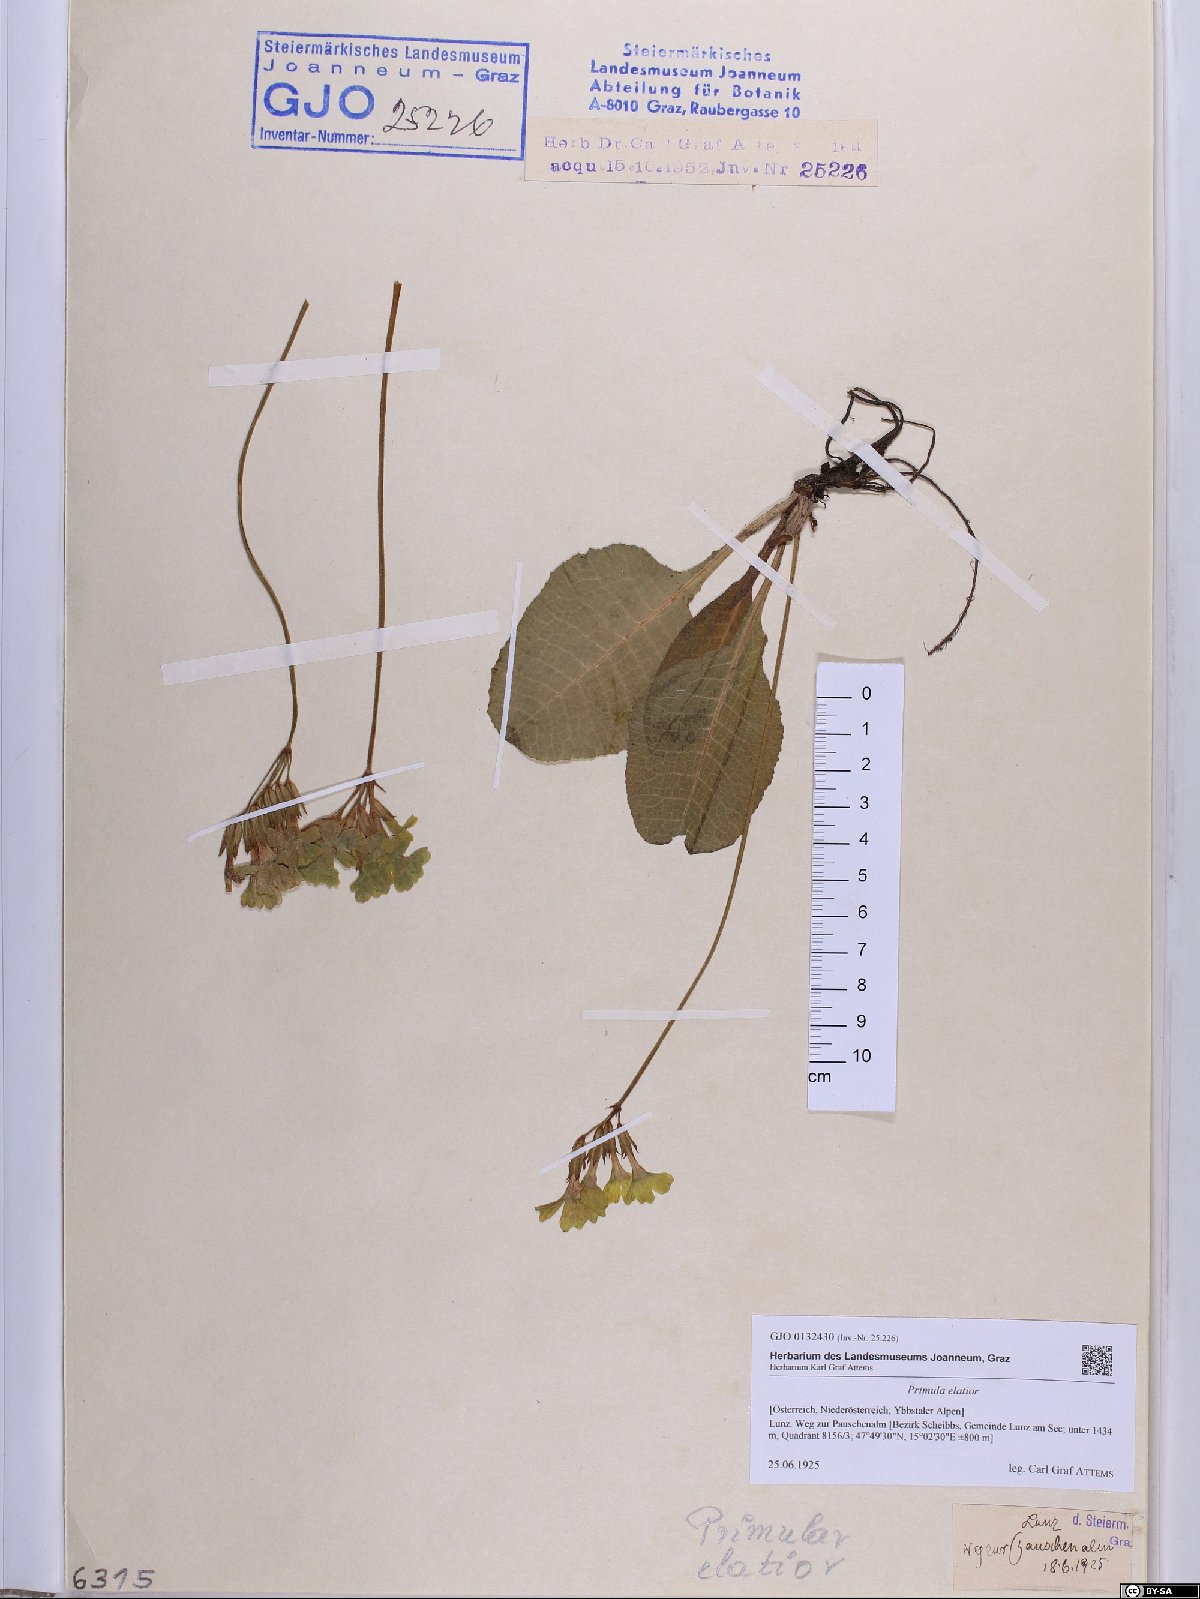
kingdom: Plantae
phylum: Tracheophyta
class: Magnoliopsida
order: Ericales
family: Primulaceae
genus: Primula
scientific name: Primula elatior
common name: Oxlip
